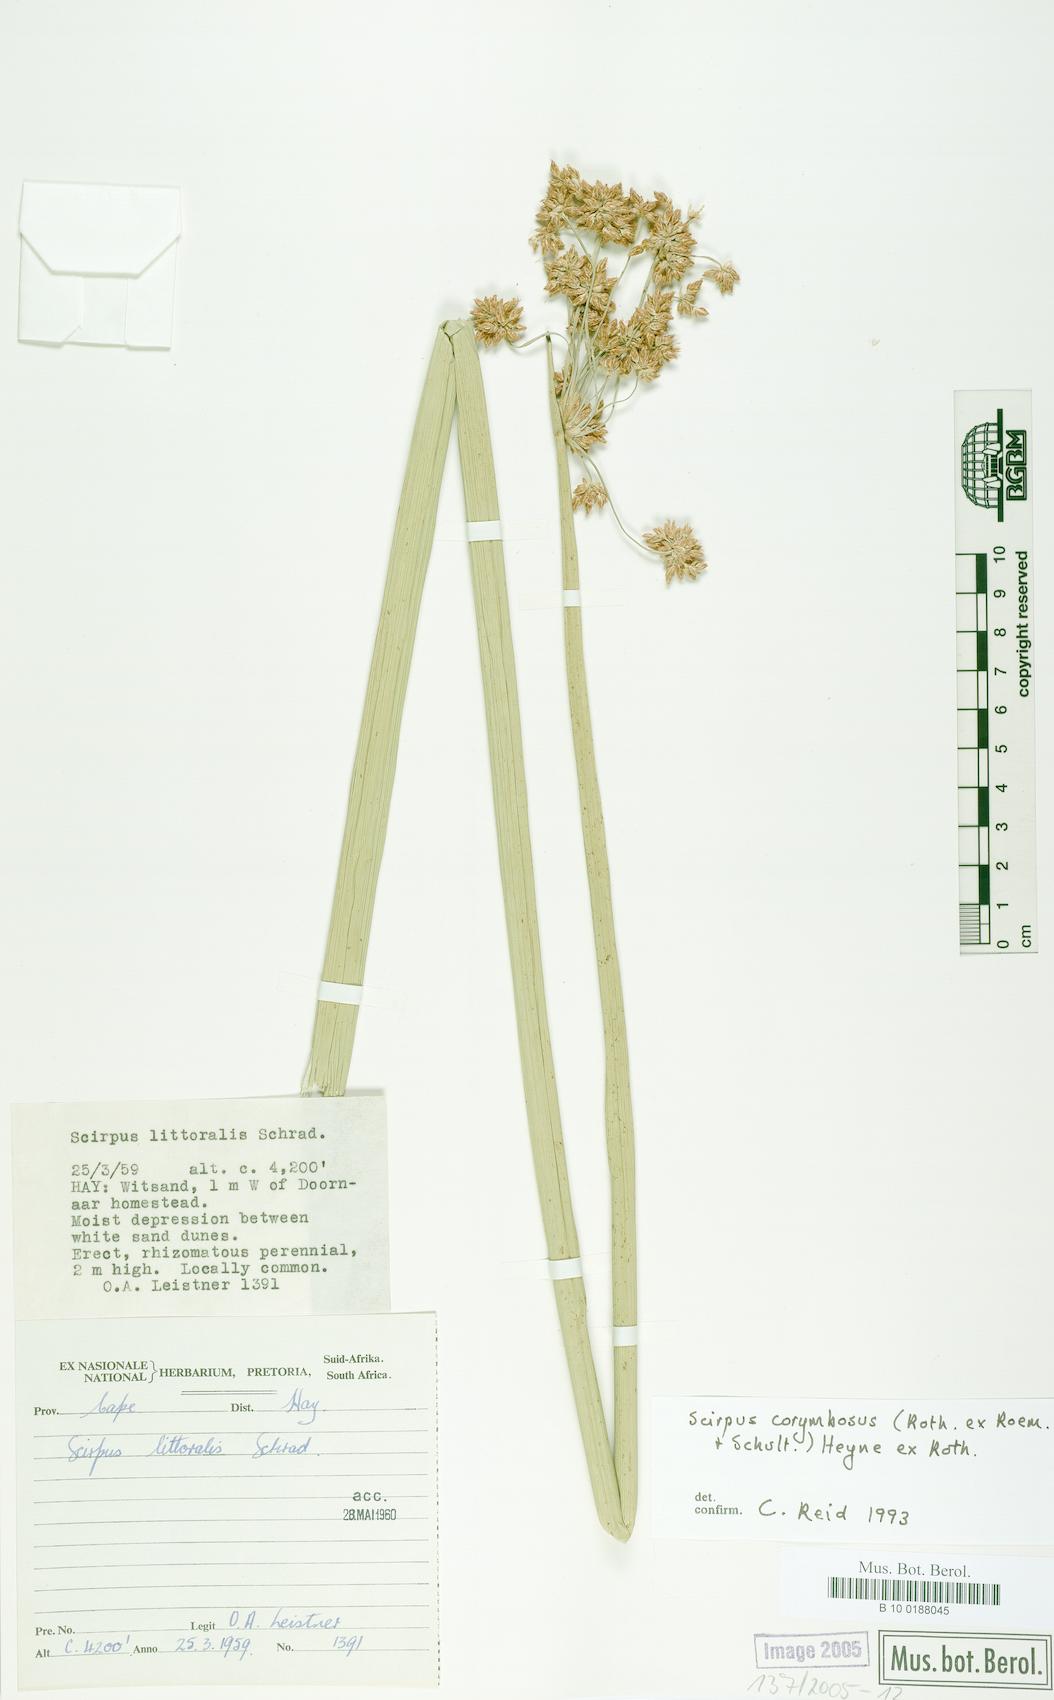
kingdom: Plantae
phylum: Tracheophyta
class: Liliopsida
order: Poales
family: Cyperaceae
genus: Scirpus
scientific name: Scirpus corymbosus
